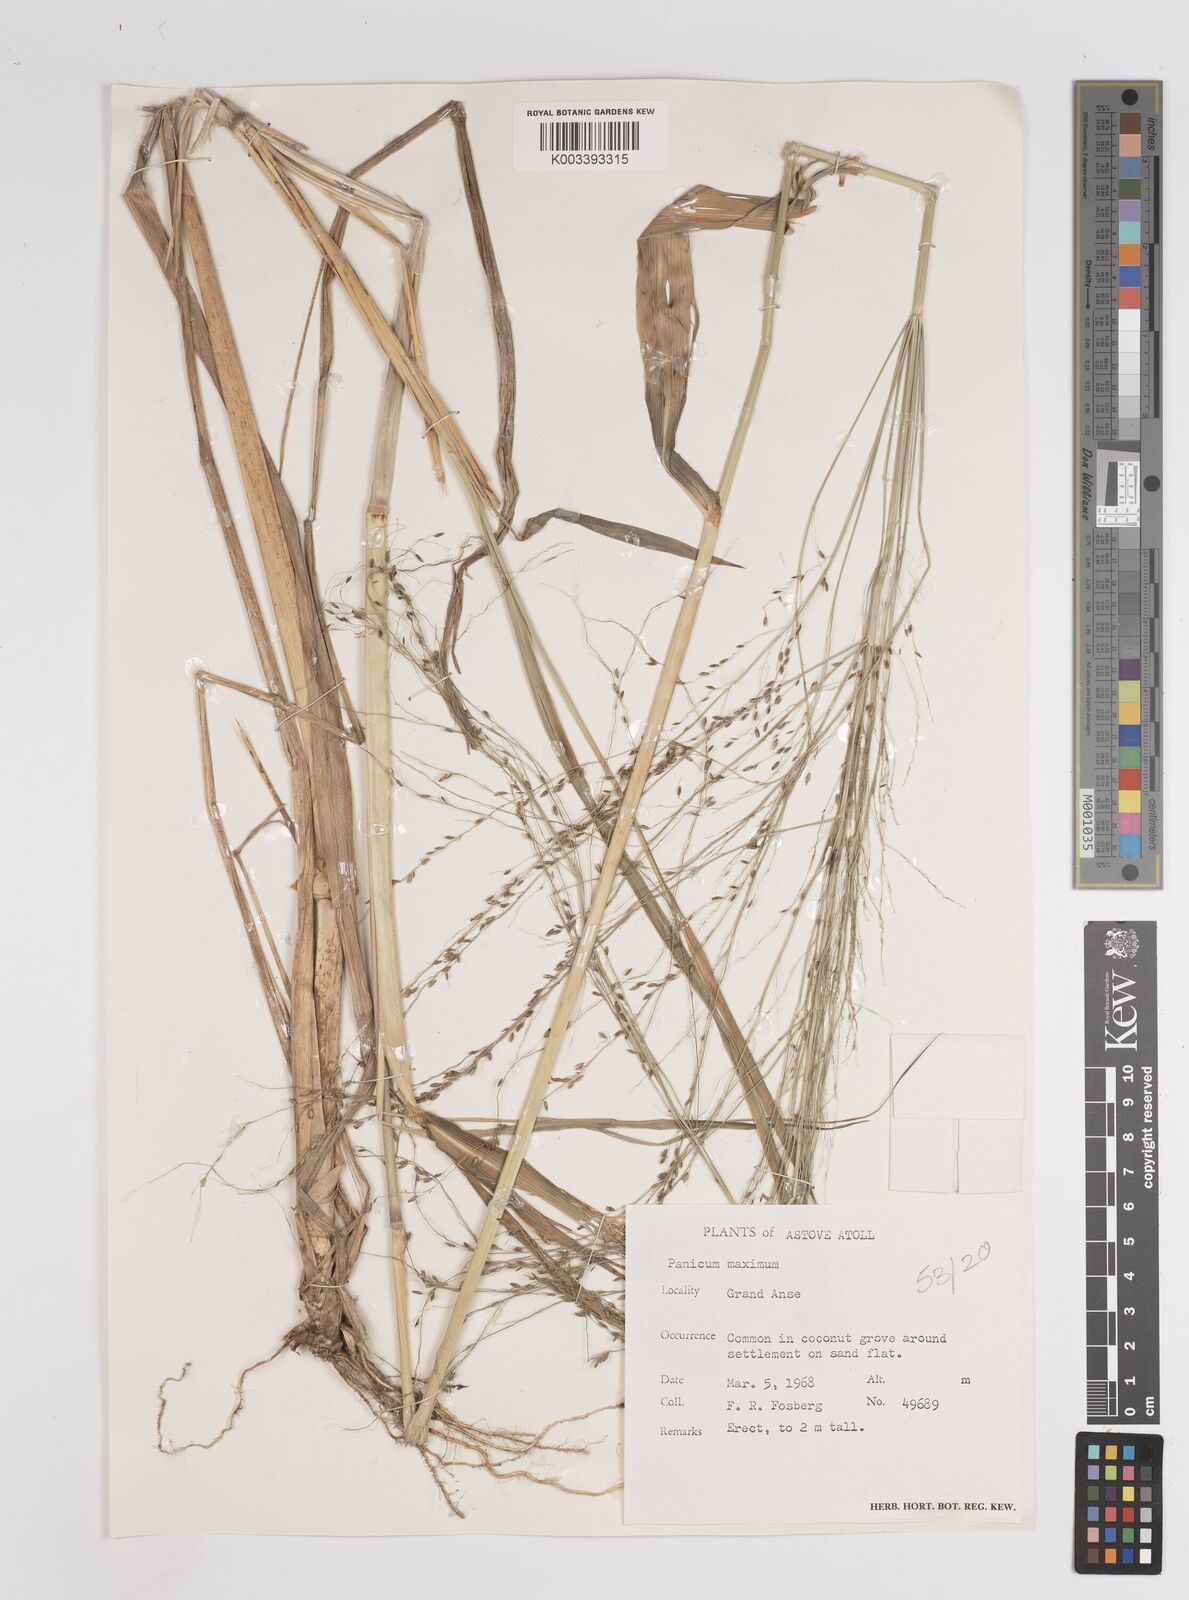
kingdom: Plantae
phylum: Tracheophyta
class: Liliopsida
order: Poales
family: Poaceae
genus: Megathyrsus
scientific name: Megathyrsus maximus
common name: Guineagrass
